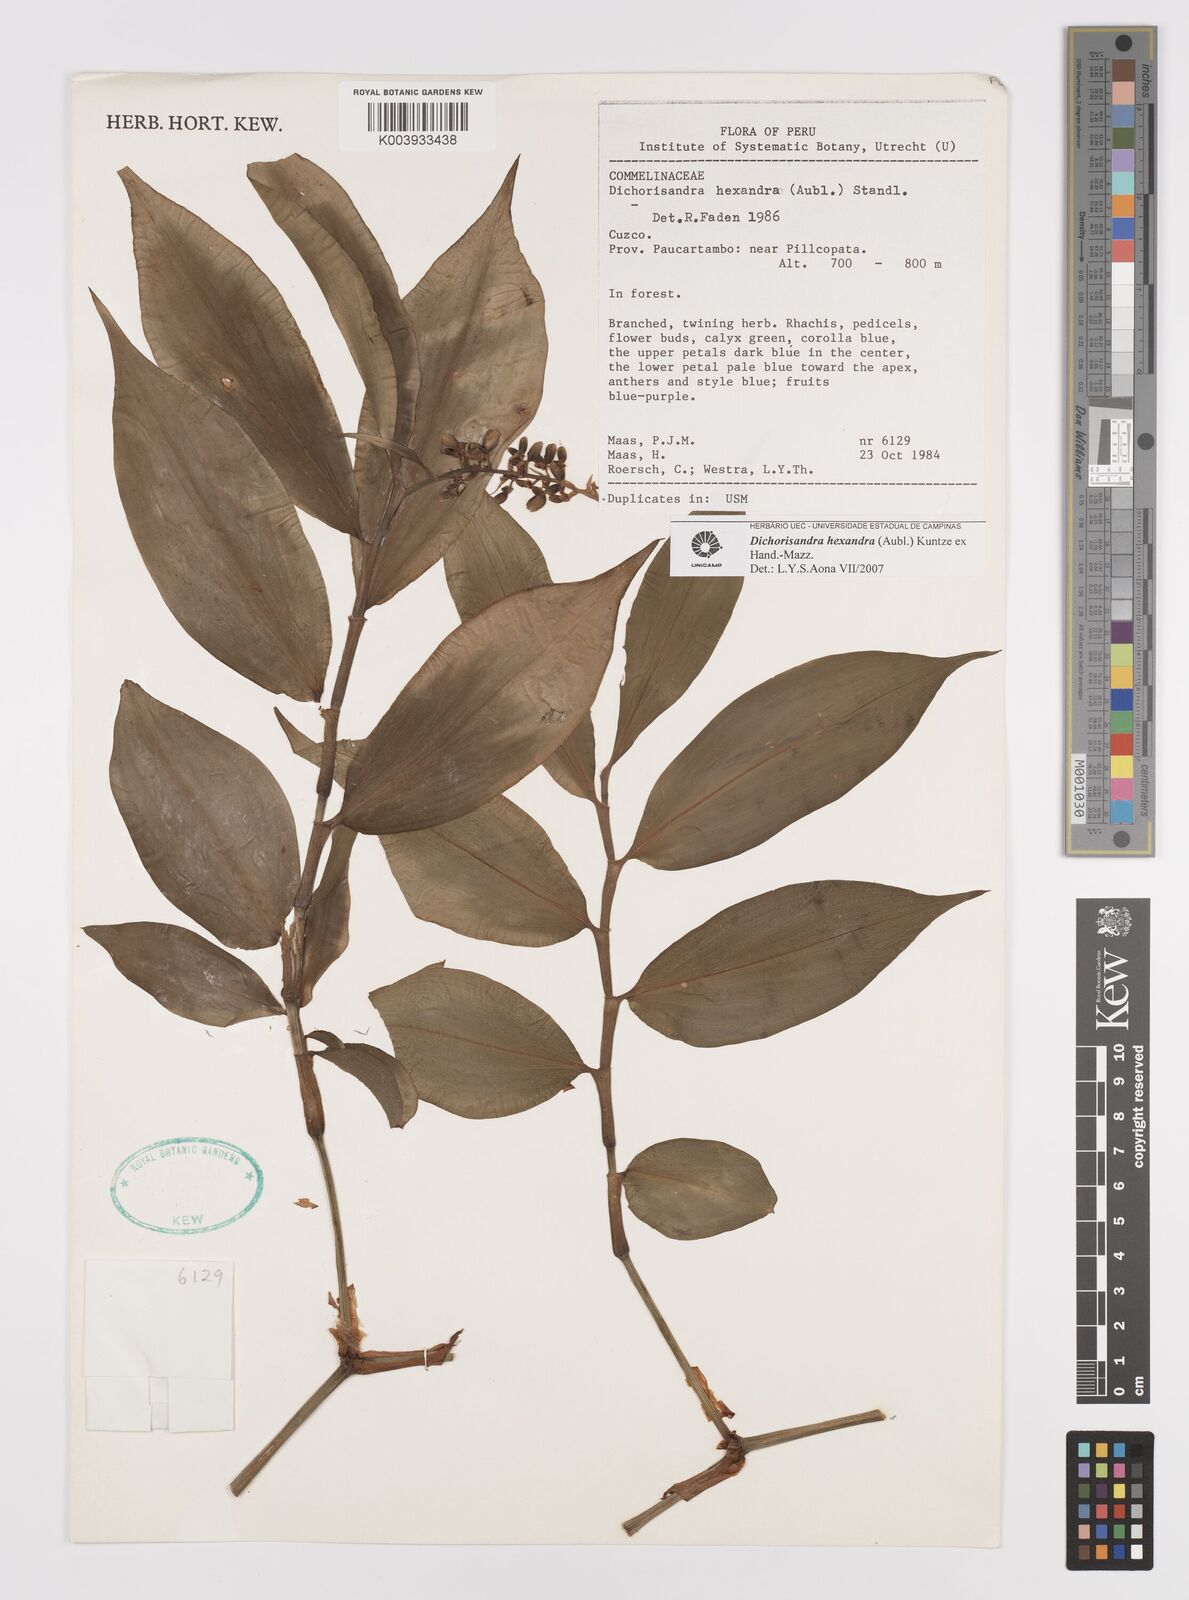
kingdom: Plantae
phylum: Tracheophyta
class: Liliopsida
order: Commelinales
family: Commelinaceae
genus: Dichorisandra
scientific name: Dichorisandra hexandra
